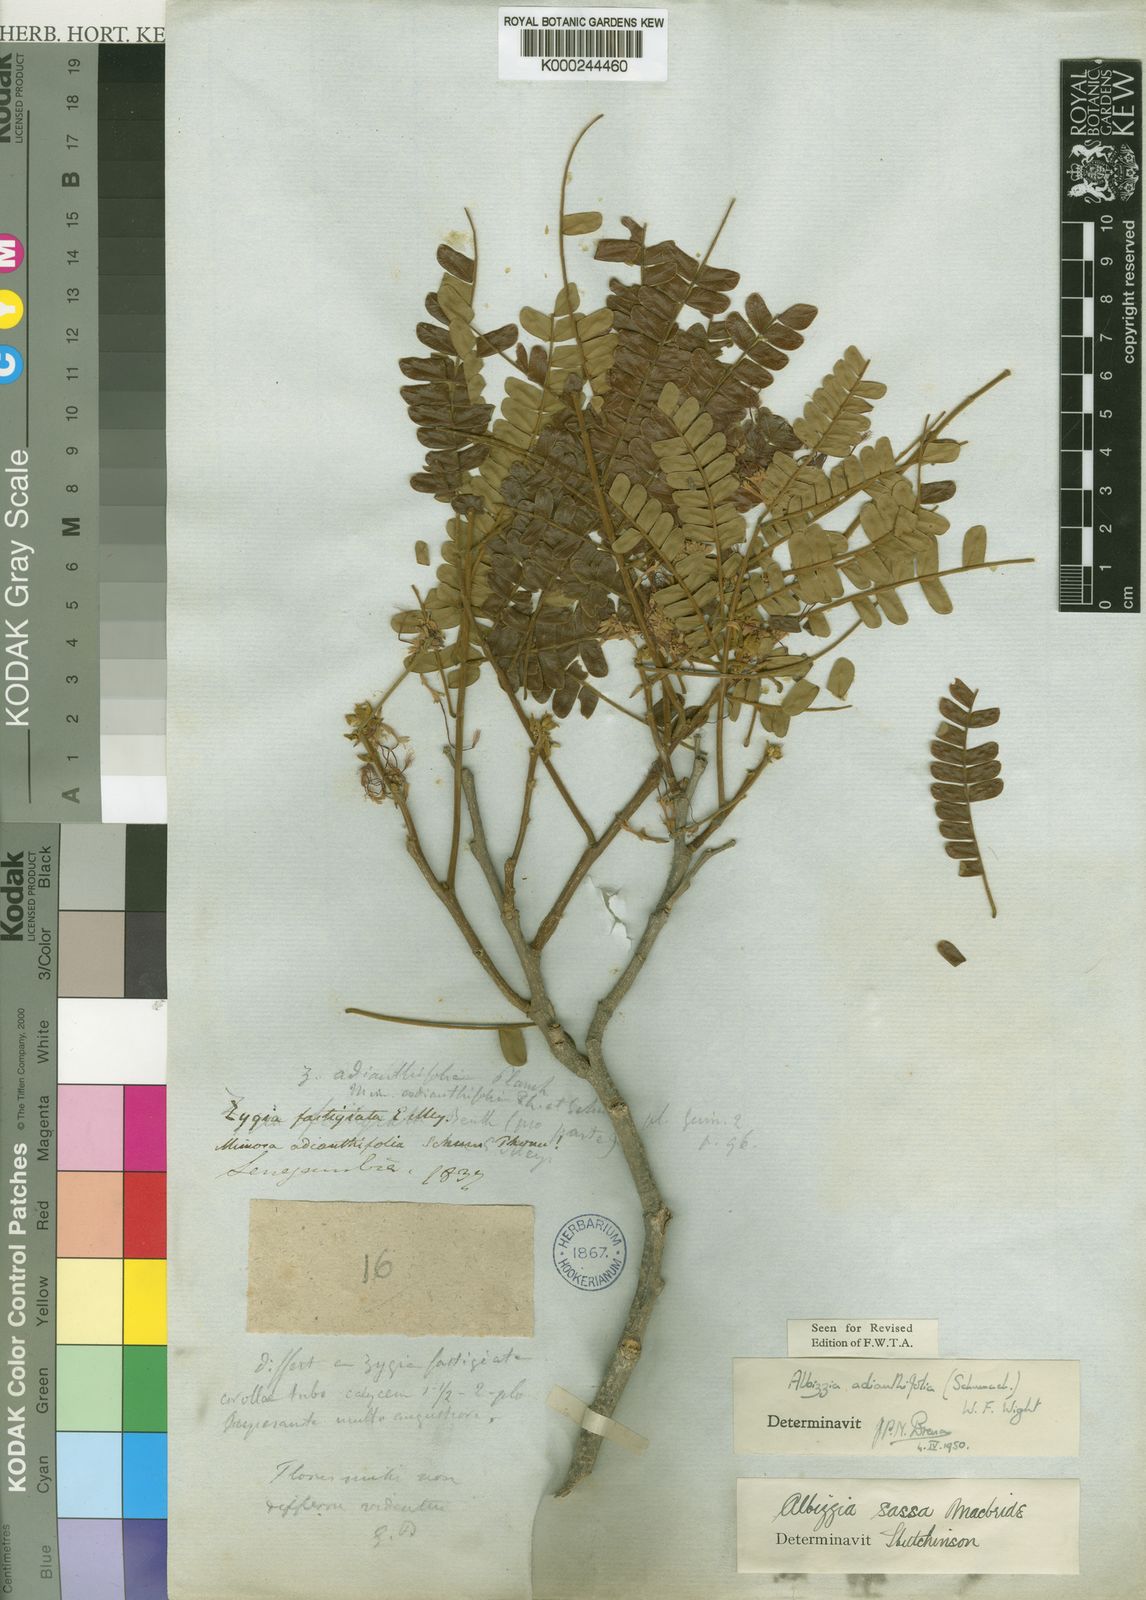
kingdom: Plantae
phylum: Tracheophyta
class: Magnoliopsida
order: Fabales
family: Fabaceae
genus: Albizia
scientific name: Albizia adianthifolia
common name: West african albizia
